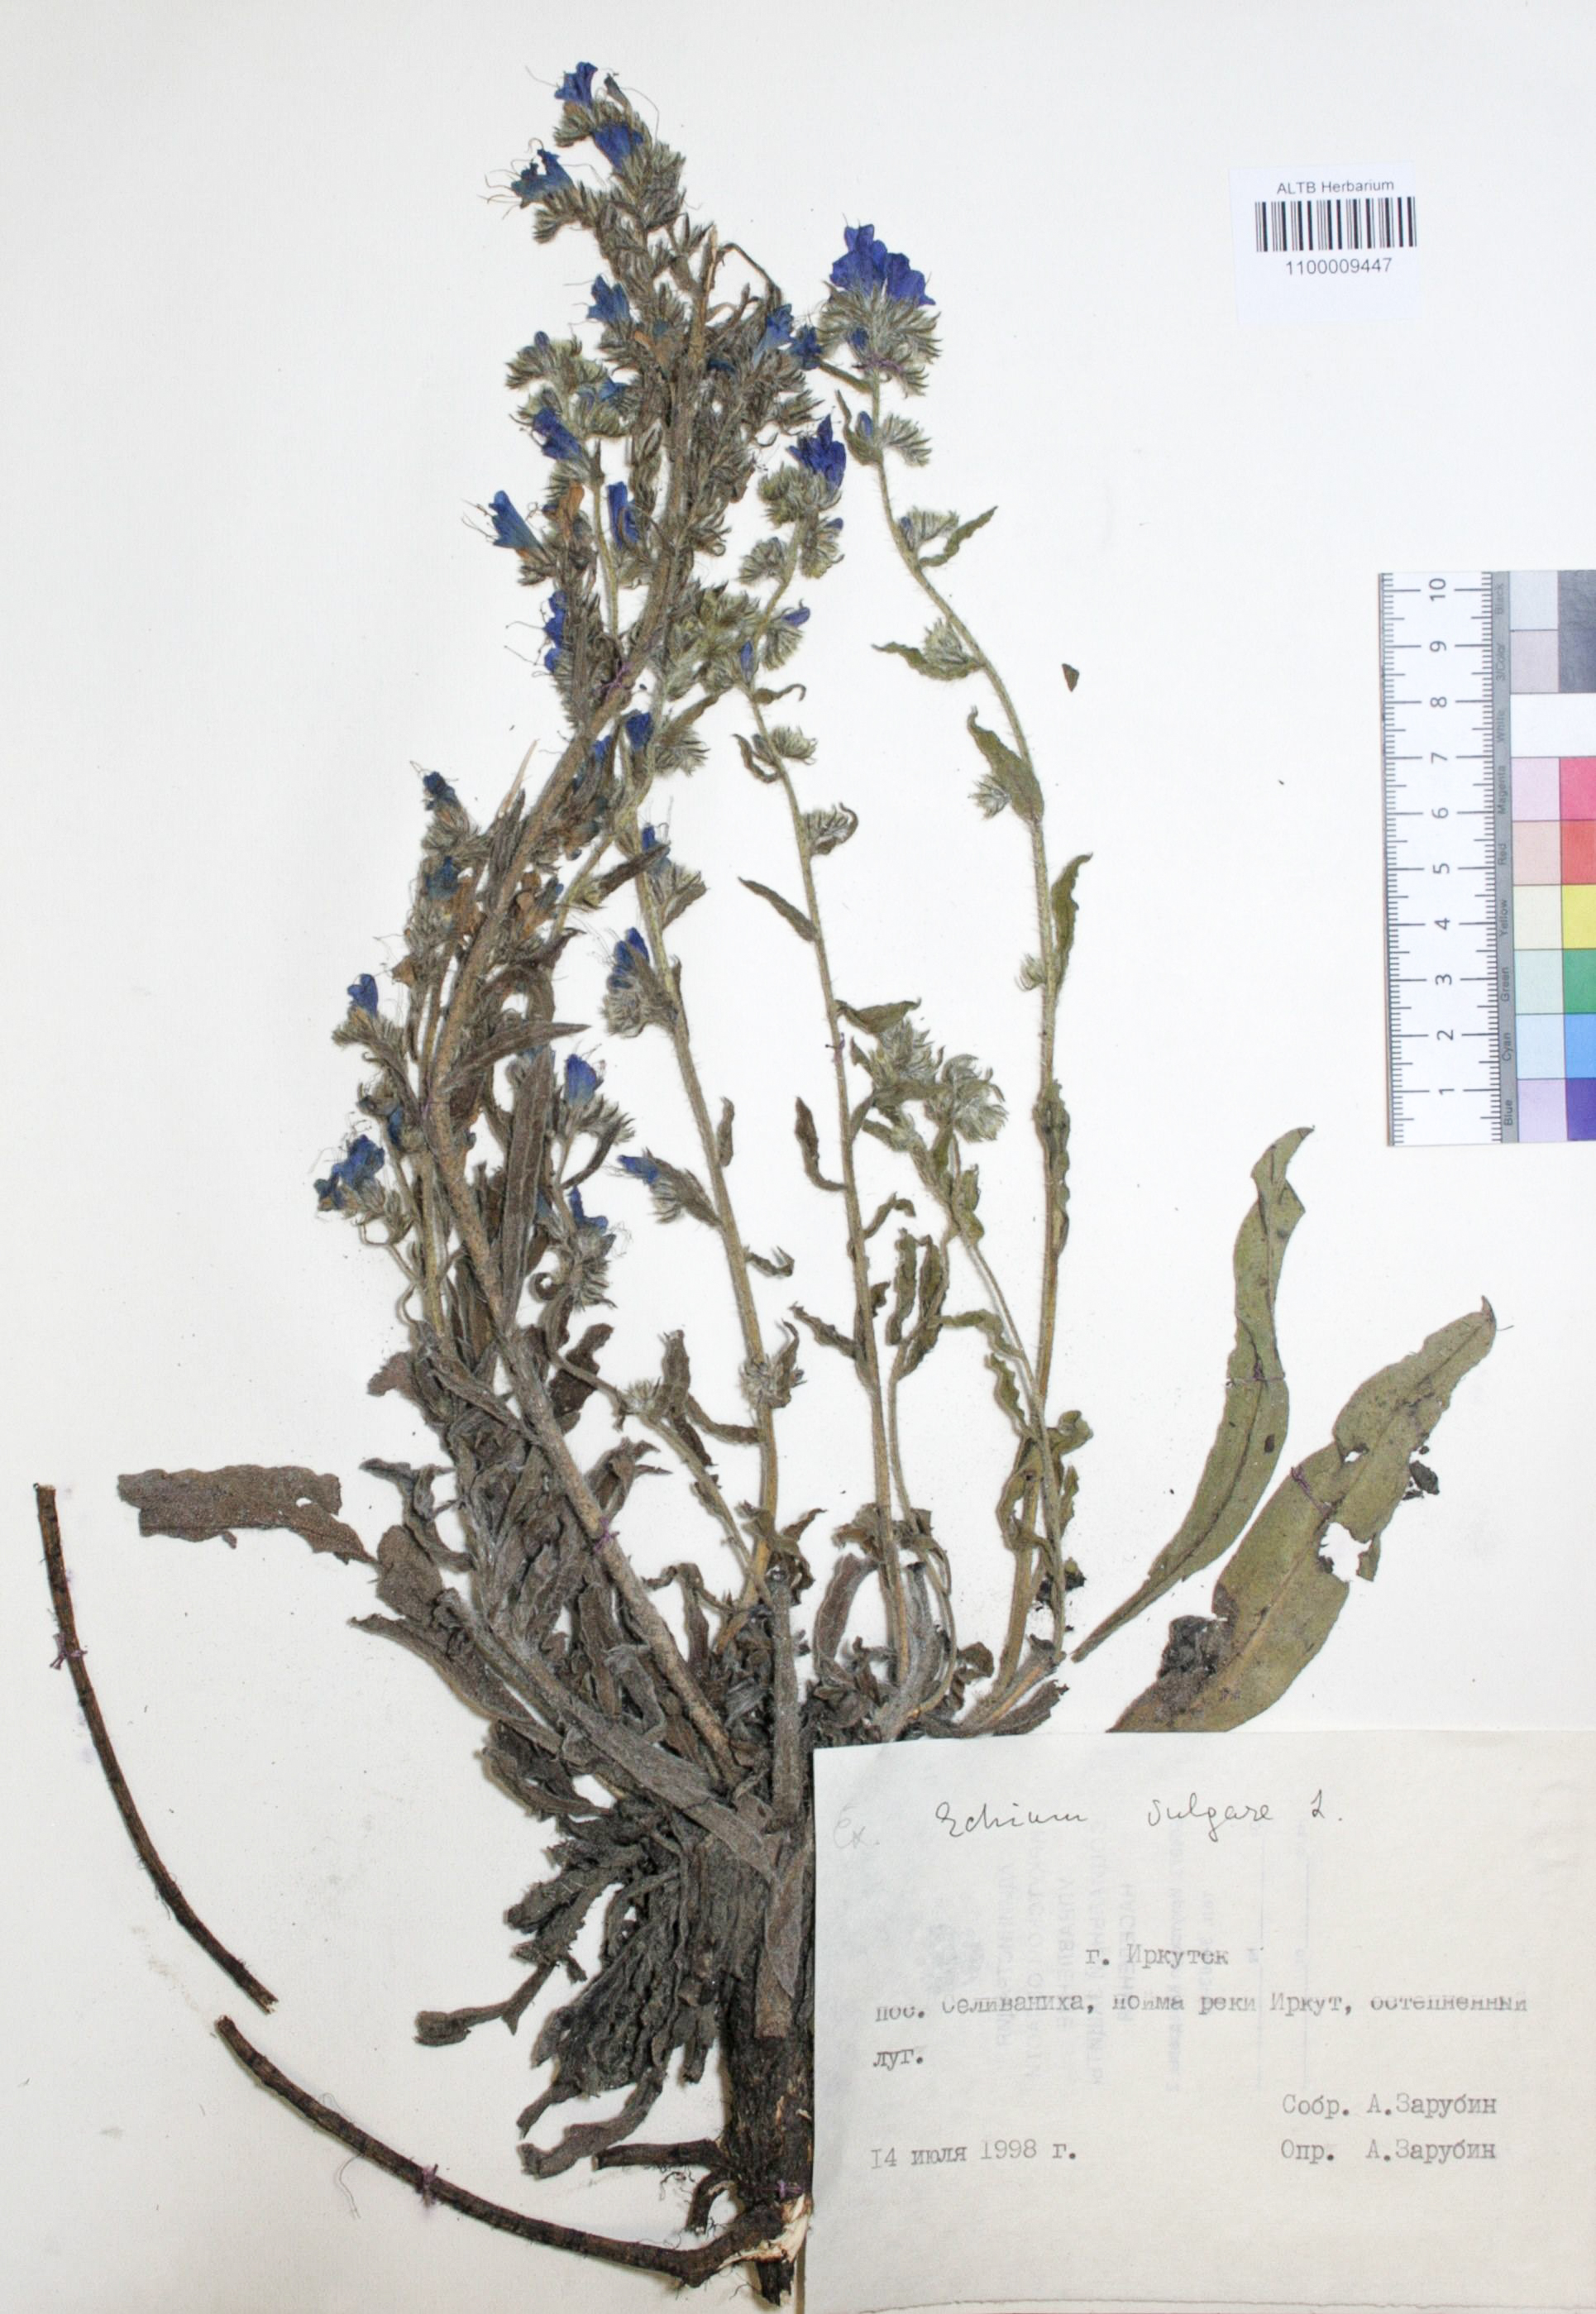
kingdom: Plantae
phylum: Tracheophyta
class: Magnoliopsida
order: Boraginales
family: Boraginaceae
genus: Echium
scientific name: Echium vulgare
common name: Common viper's bugloss
